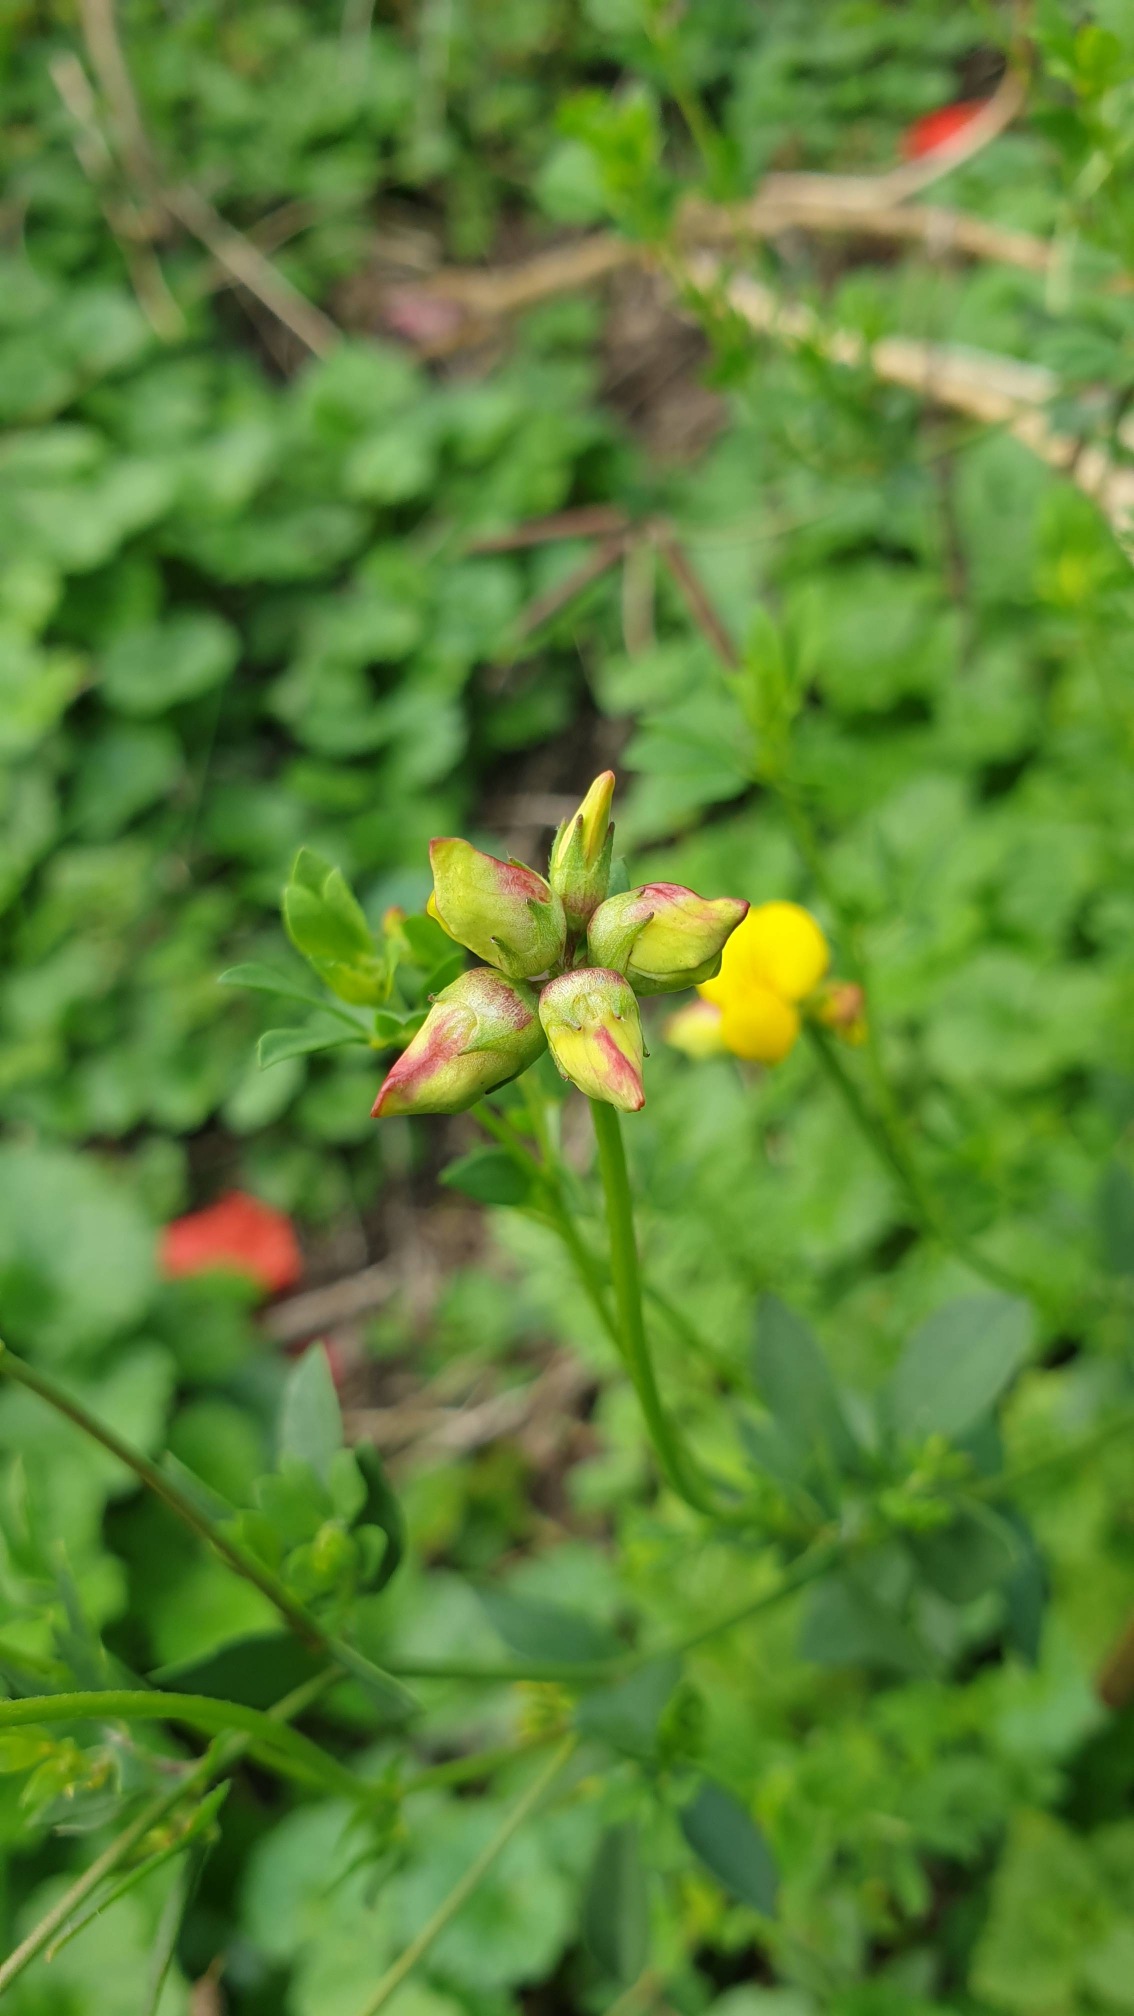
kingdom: Animalia
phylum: Arthropoda
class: Insecta
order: Diptera
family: Cecidomyiidae
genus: Contarinia
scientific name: Contarinia loti
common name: Kællingetandblomstgalmyg
